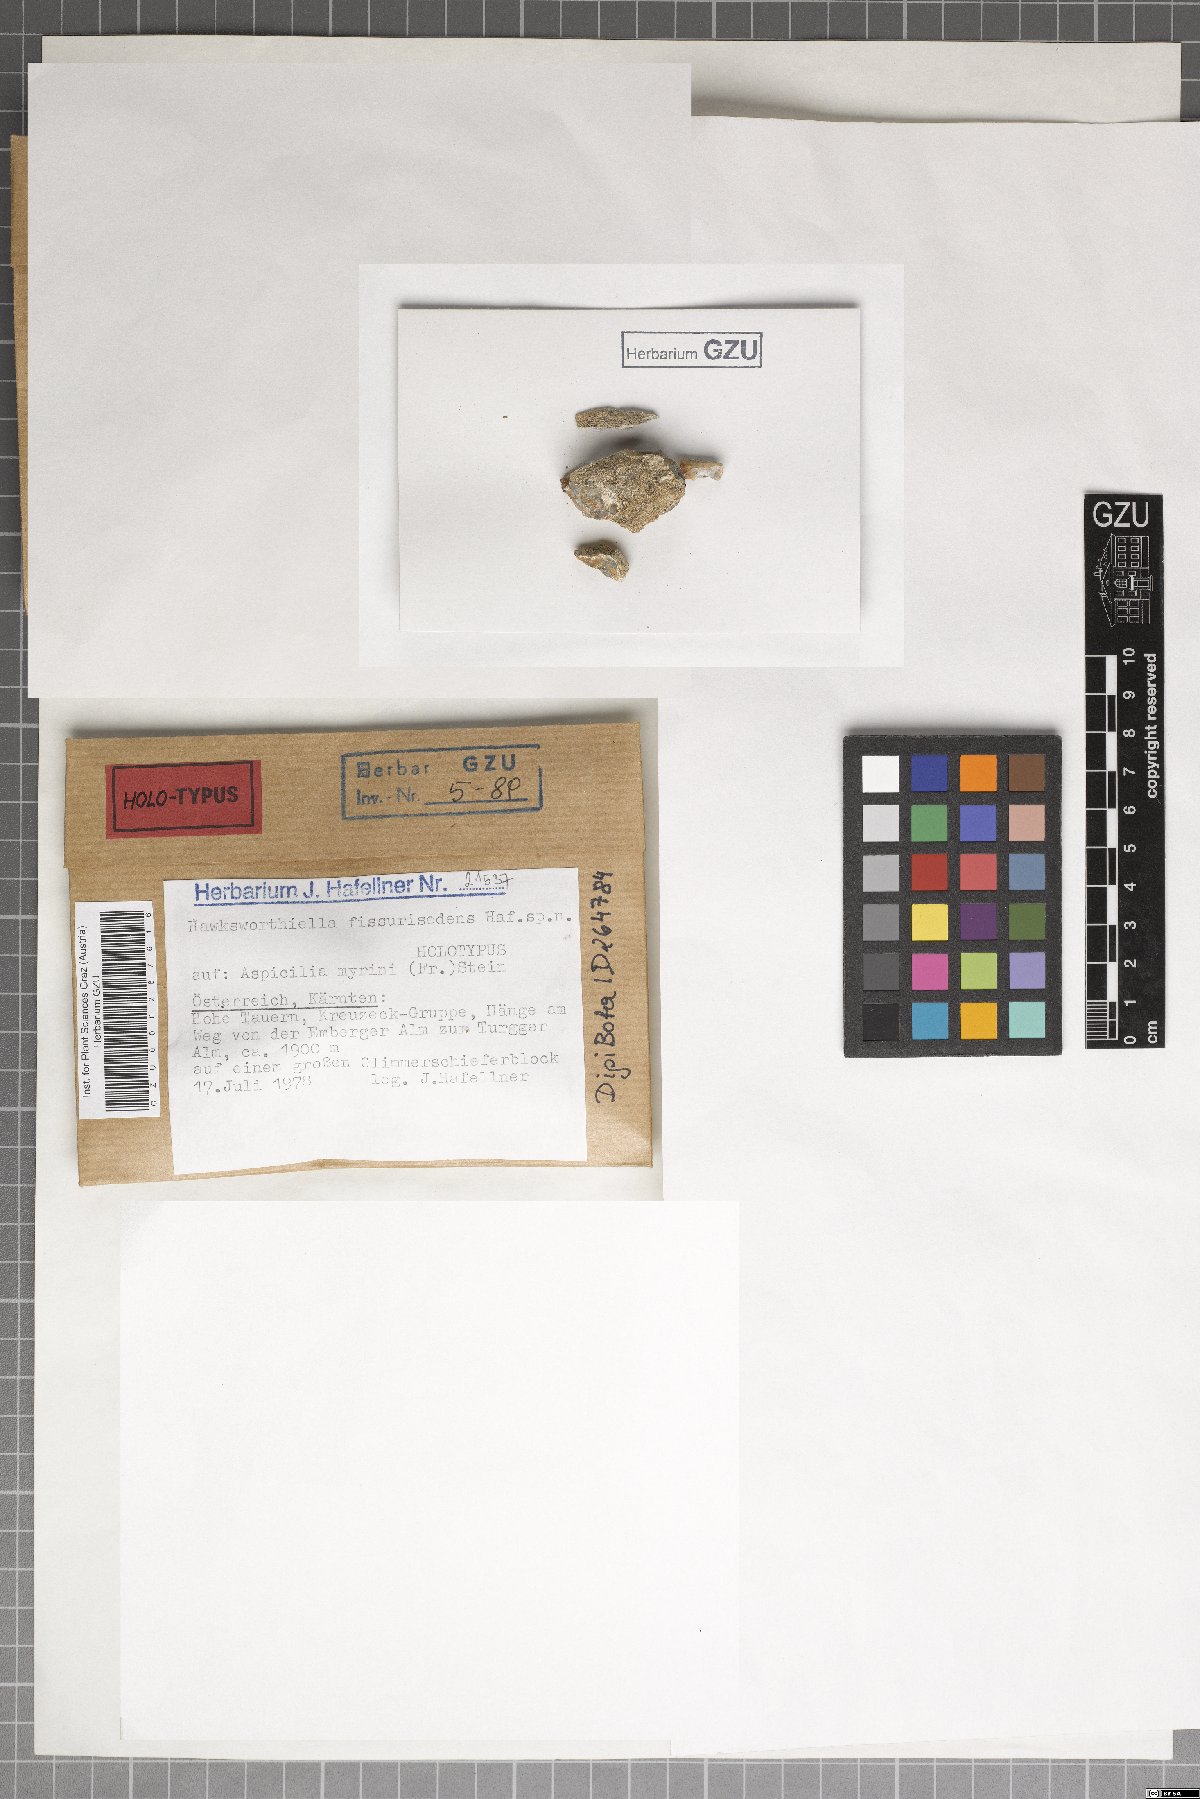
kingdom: Fungi
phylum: Ascomycota
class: Eurotiomycetes
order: Verrucariales
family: Adelococcaceae
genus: Sagediopsis
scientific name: Sagediopsis fissurisedens
